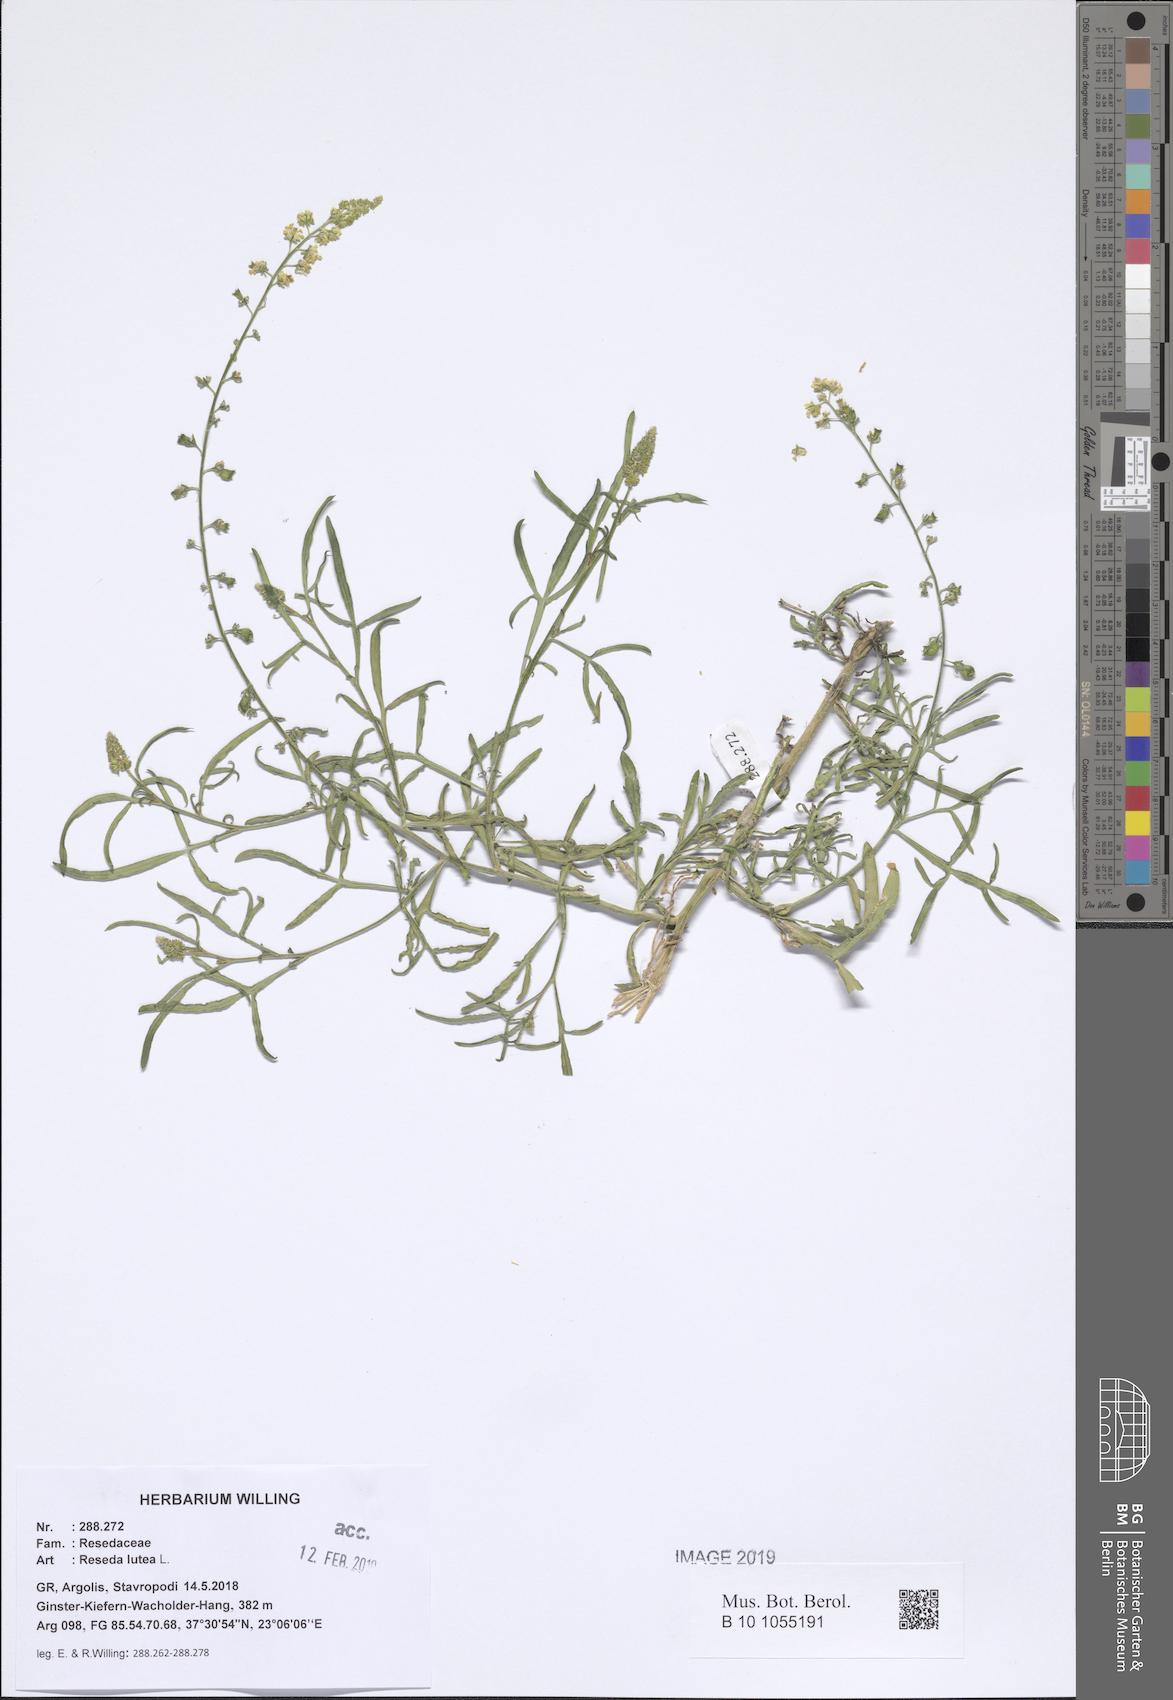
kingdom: Plantae
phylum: Tracheophyta
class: Magnoliopsida
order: Brassicales
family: Resedaceae
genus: Reseda
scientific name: Reseda lutea
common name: Wild mignonette
